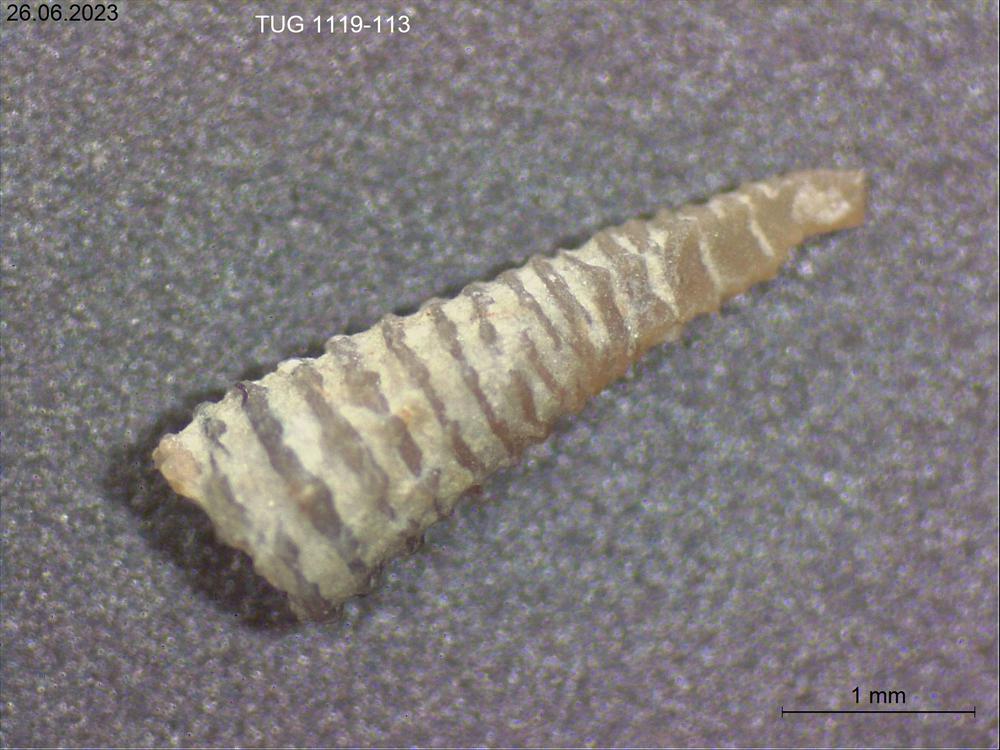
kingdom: Animalia
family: Cornulitidae
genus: Conchicolites
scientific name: Conchicolites
